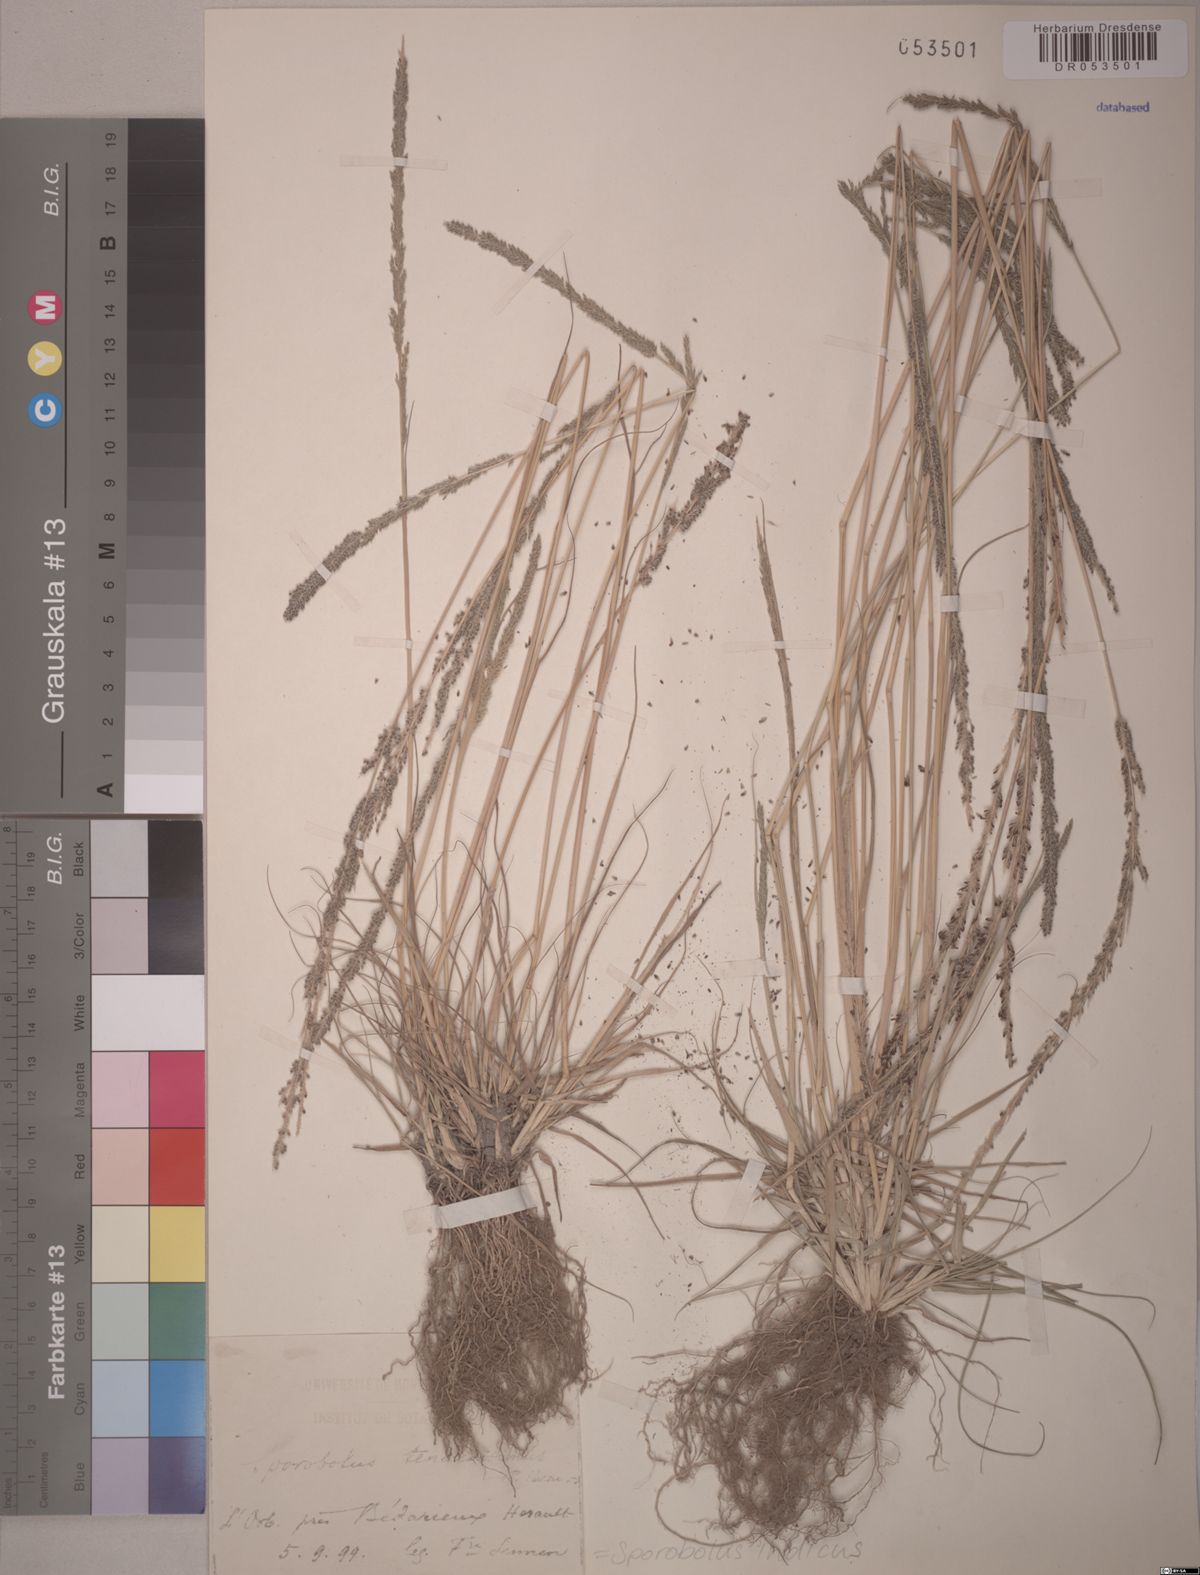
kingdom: Plantae
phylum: Tracheophyta
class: Liliopsida
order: Poales
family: Poaceae
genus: Sporobolus
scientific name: Sporobolus indicus
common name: Smut grass
